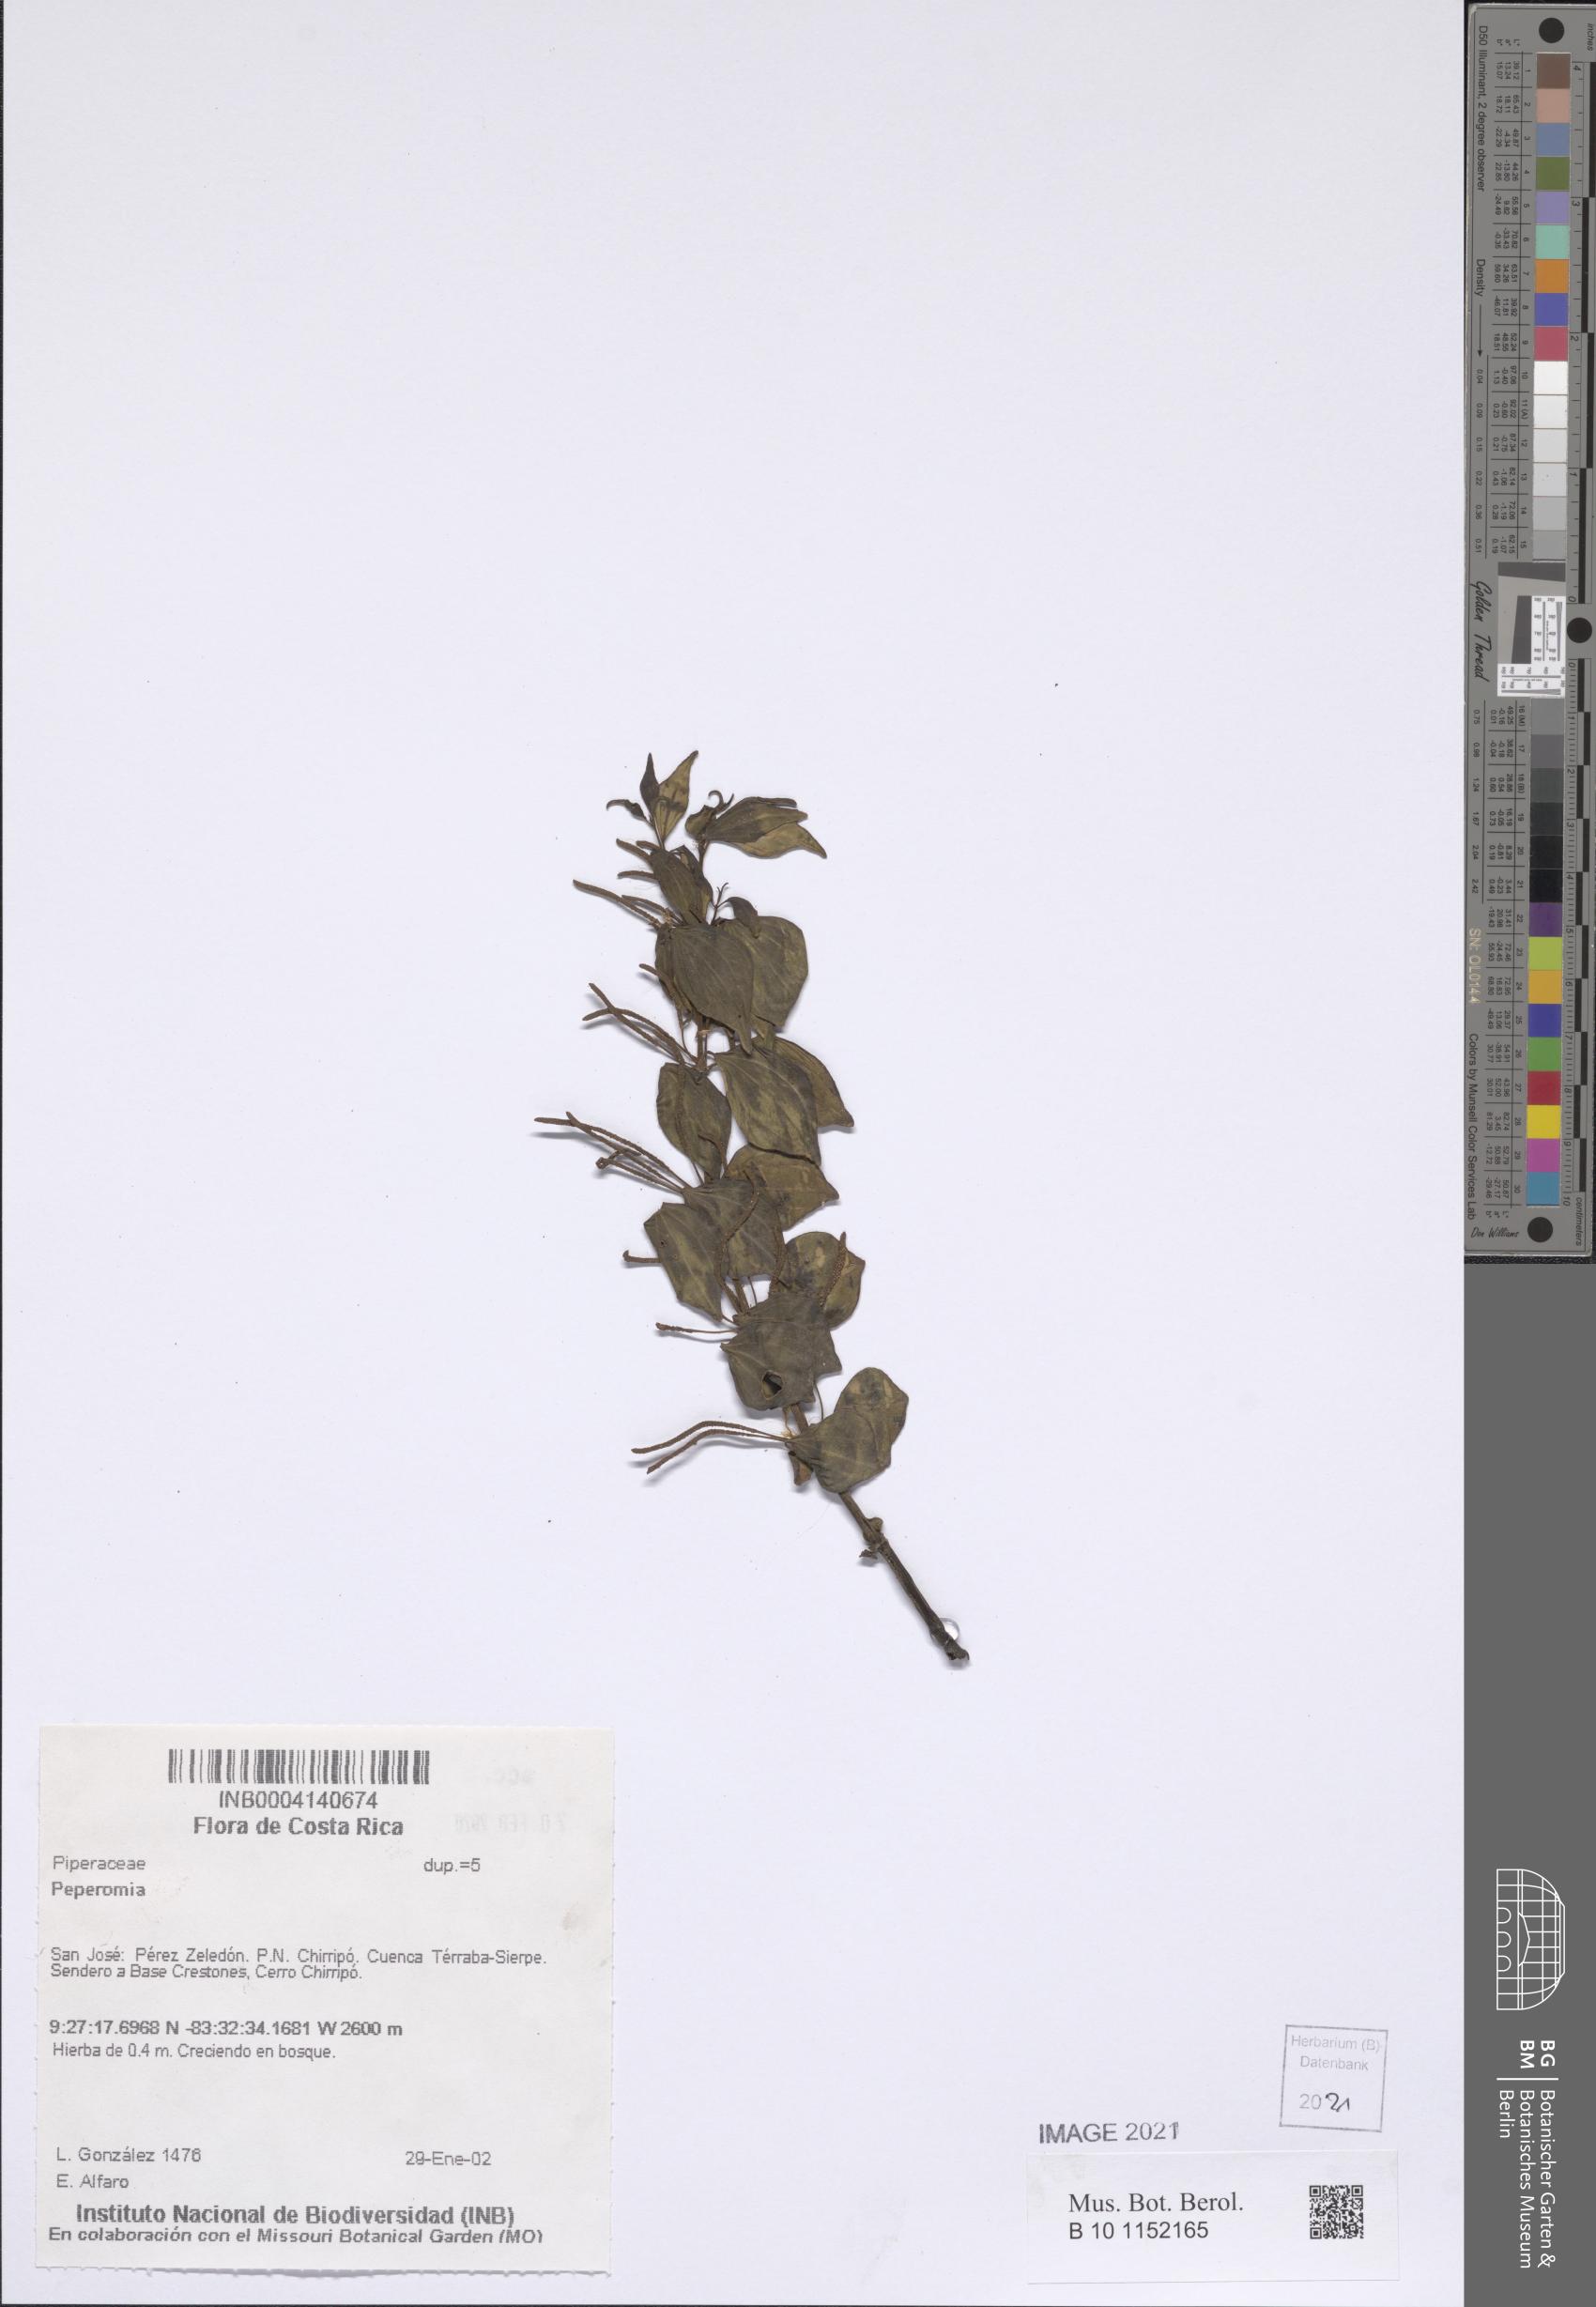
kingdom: Plantae
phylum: Tracheophyta
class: Magnoliopsida
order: Piperales
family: Piperaceae
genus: Peperomia
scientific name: Peperomia
